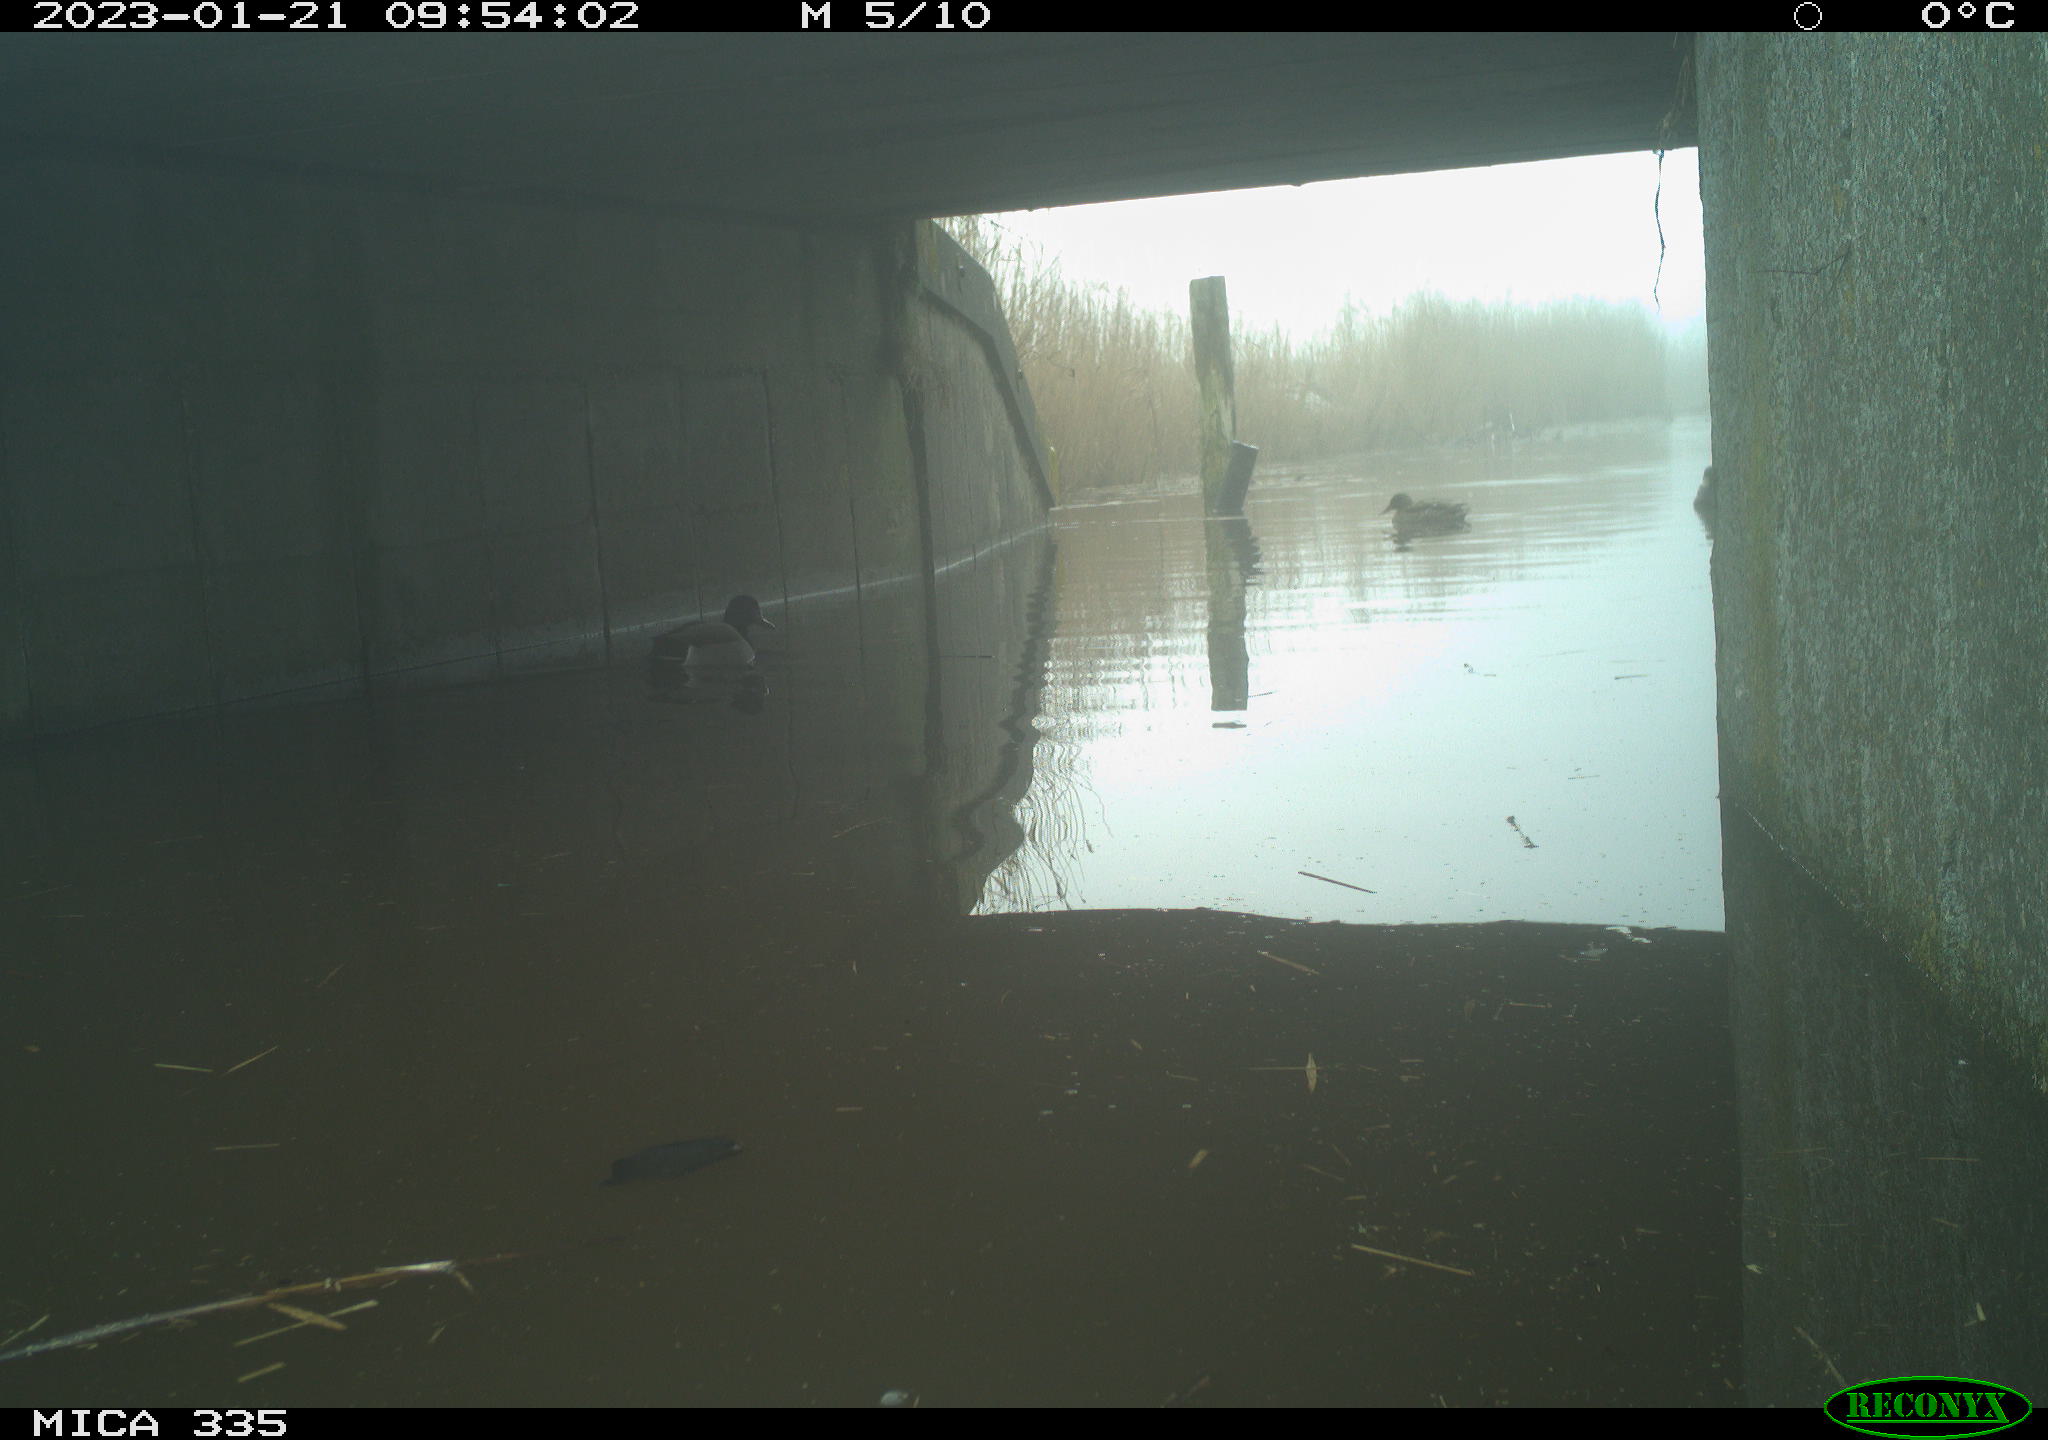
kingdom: Animalia
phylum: Chordata
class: Aves
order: Anseriformes
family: Anatidae
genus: Anas
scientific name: Anas
